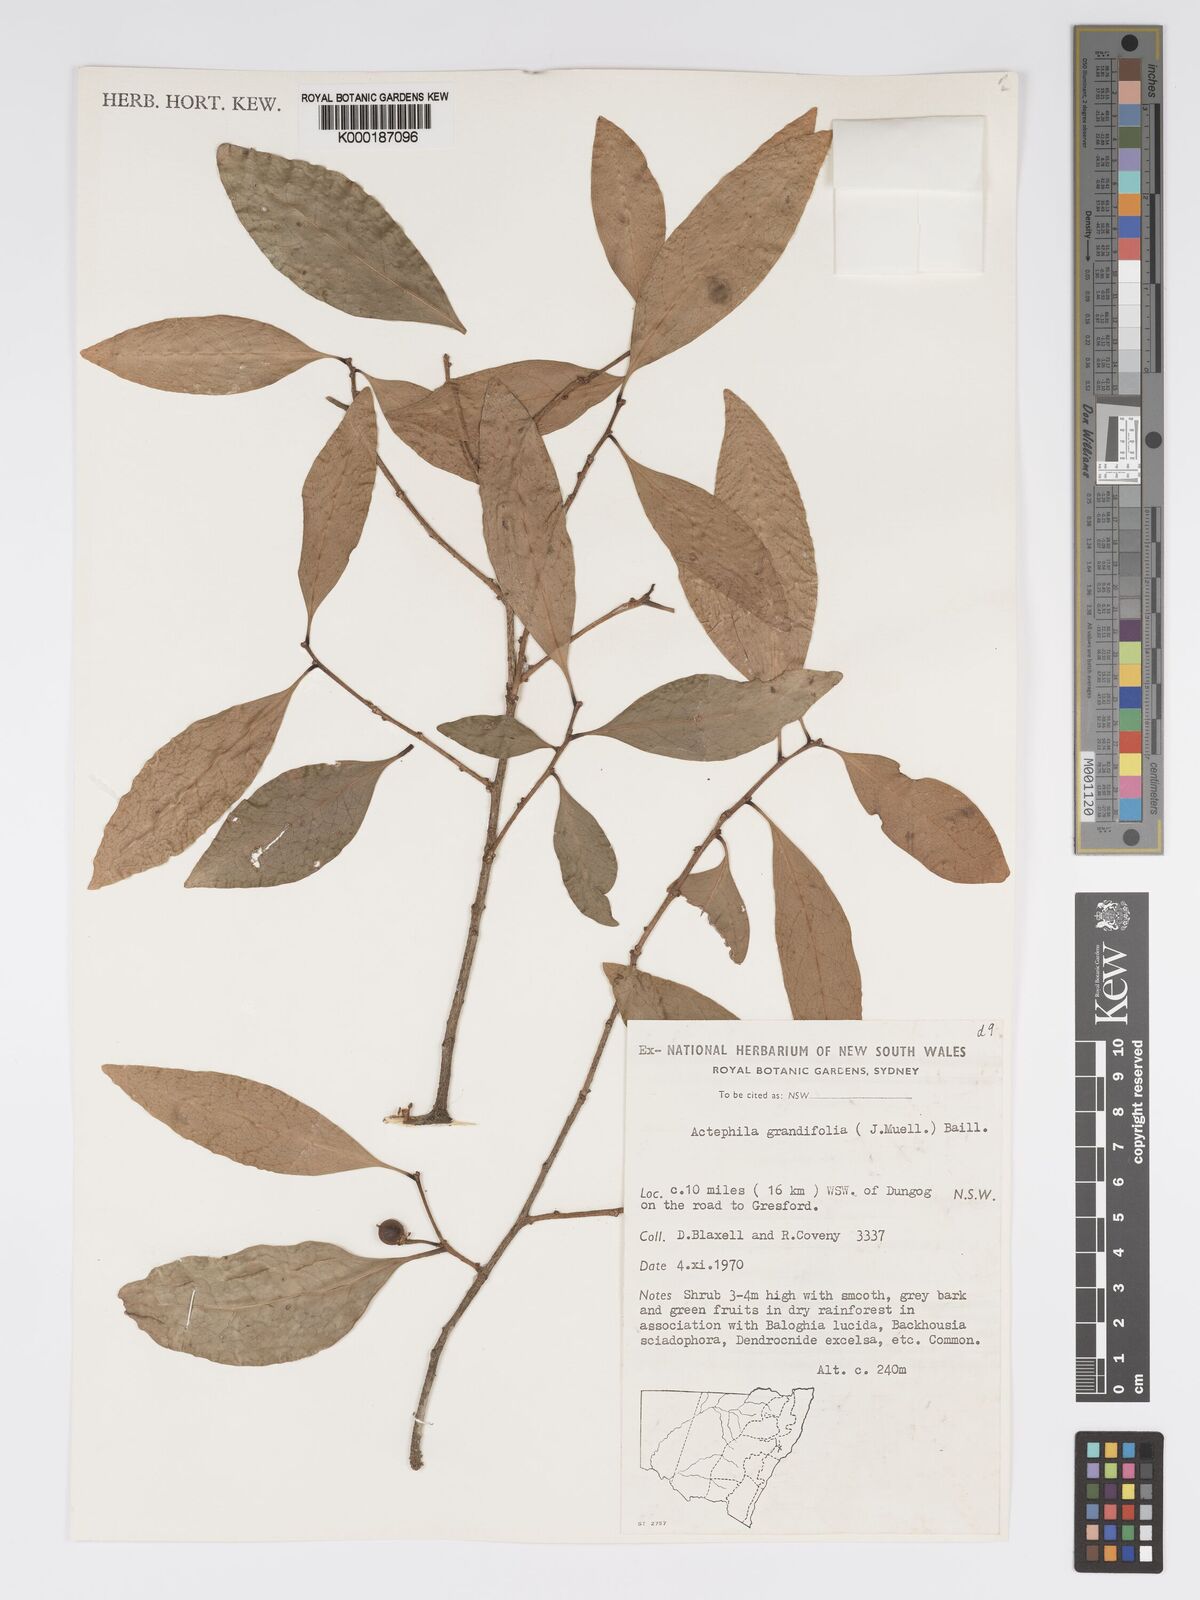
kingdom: Plantae
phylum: Tracheophyta
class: Magnoliopsida
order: Malpighiales
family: Phyllanthaceae
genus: Actephila
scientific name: Actephila lindleyi
